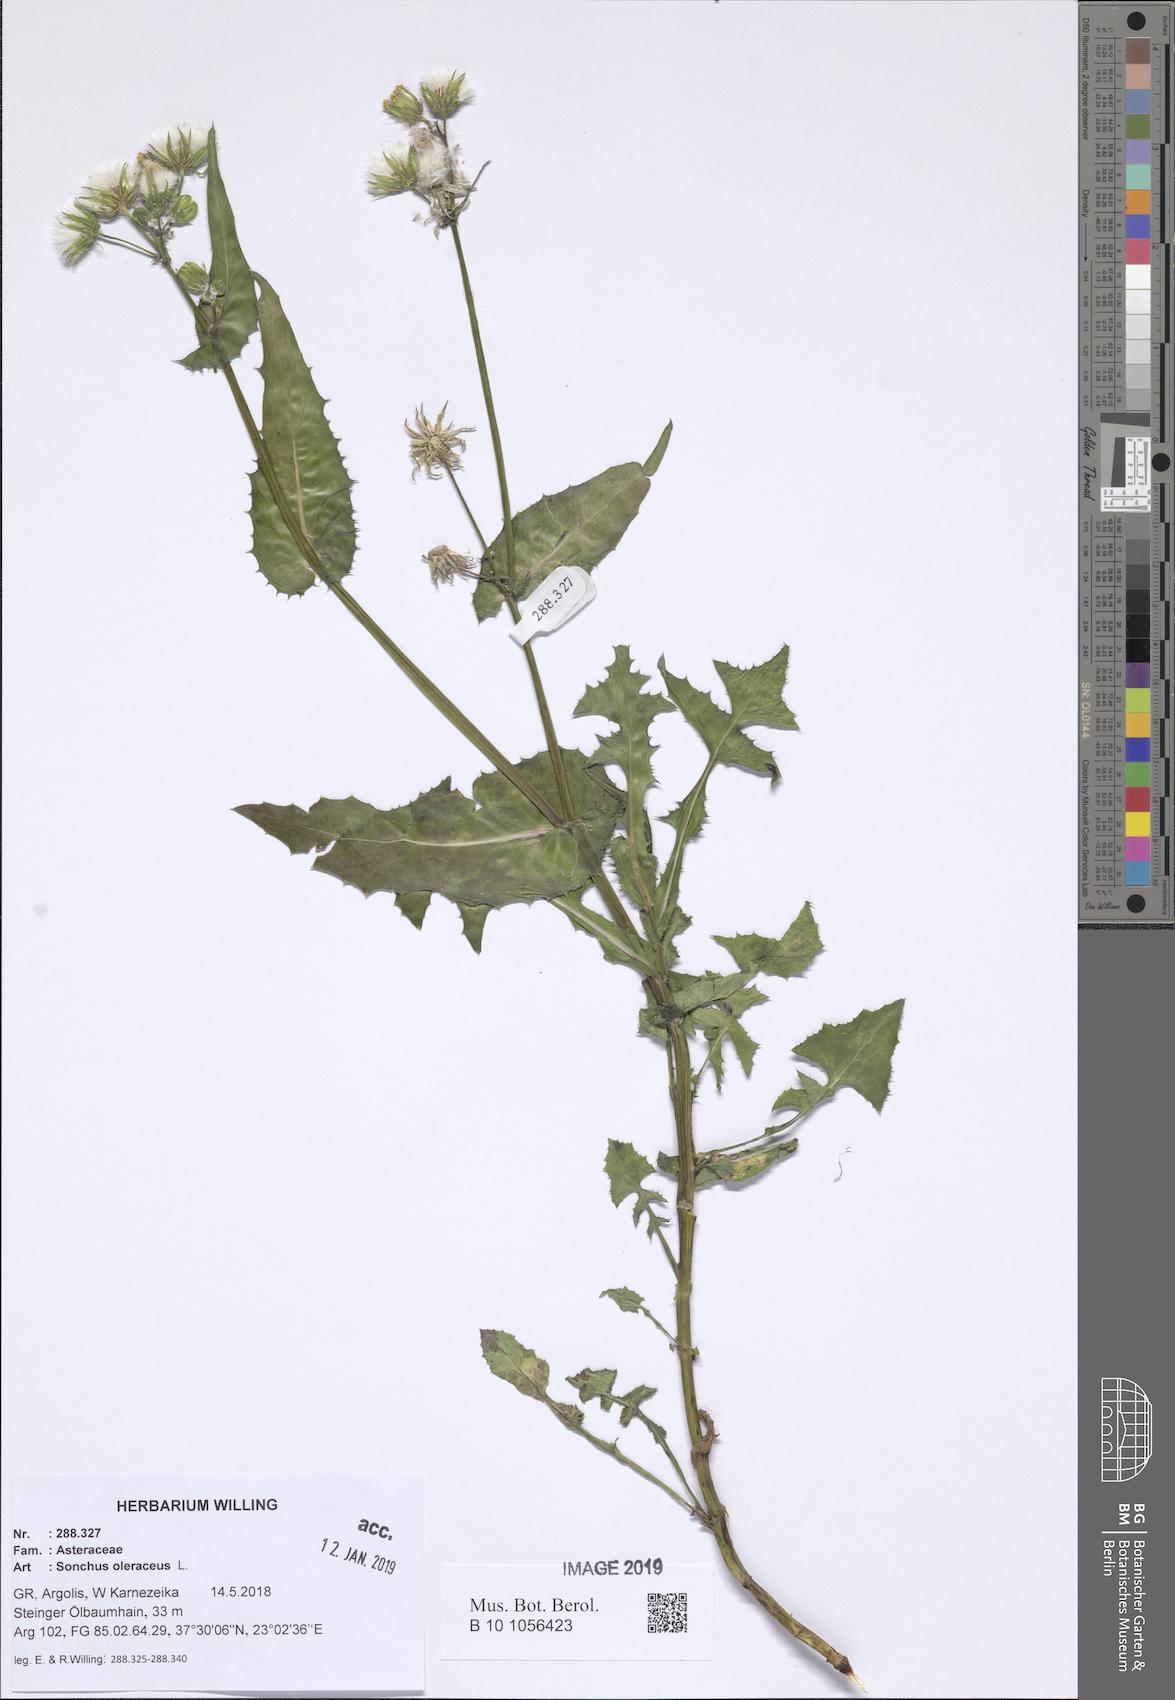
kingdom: Plantae
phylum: Tracheophyta
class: Magnoliopsida
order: Asterales
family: Asteraceae
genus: Sonchus
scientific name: Sonchus oleraceus
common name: Common sowthistle
